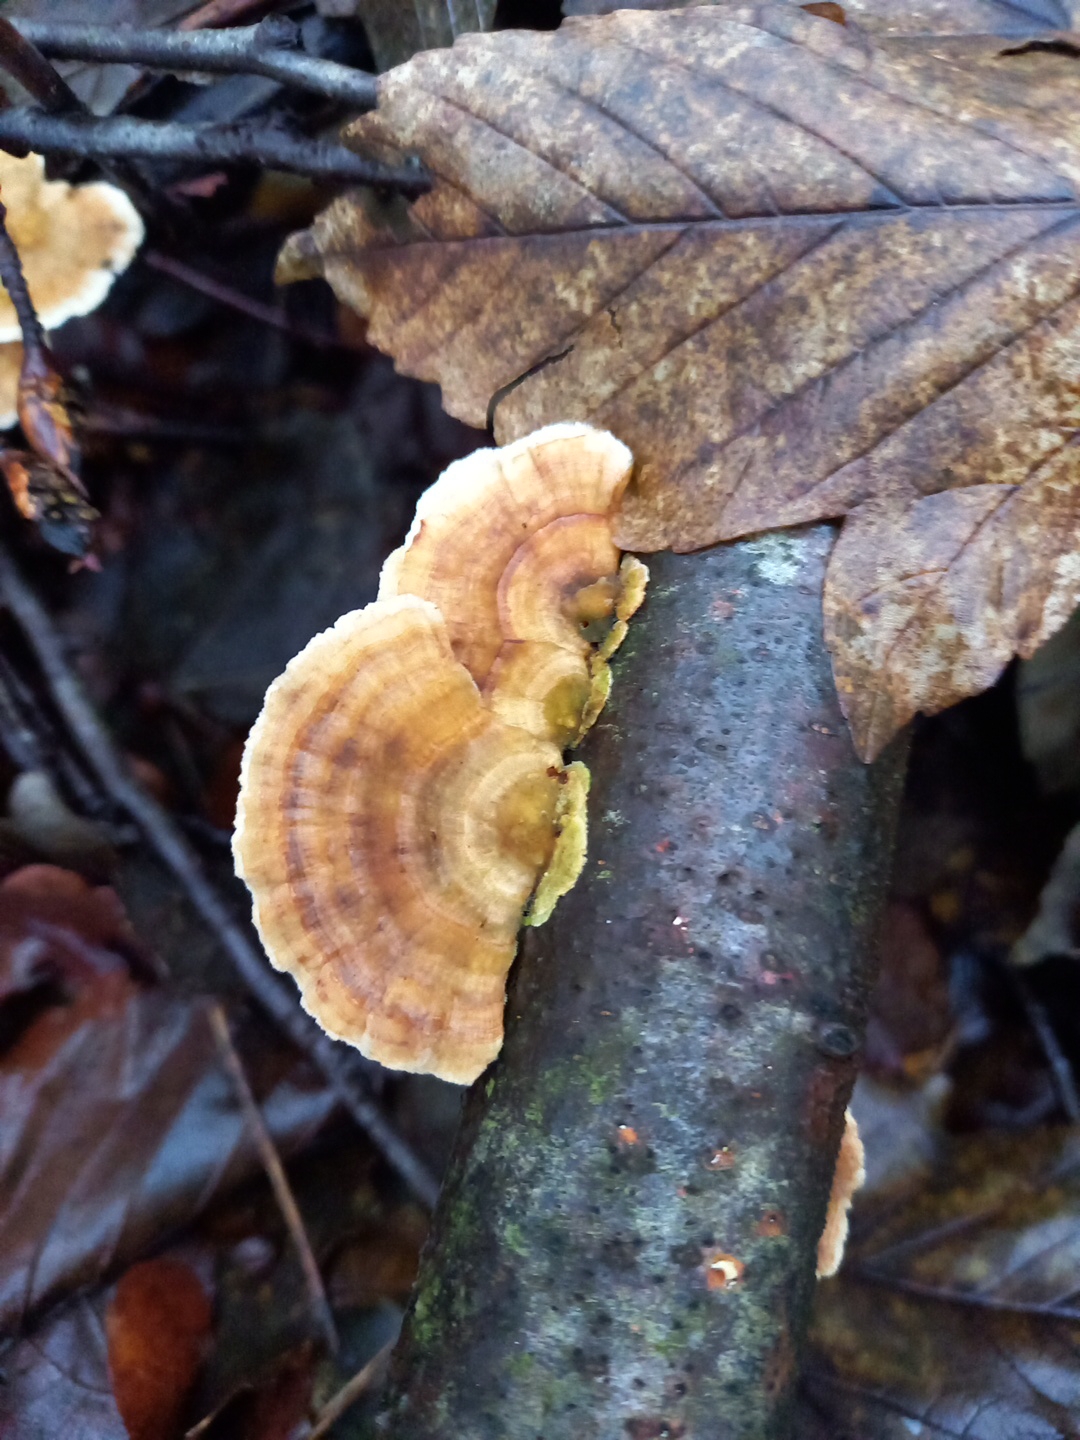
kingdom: Fungi
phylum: Basidiomycota
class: Agaricomycetes
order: Polyporales
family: Polyporaceae
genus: Trametes
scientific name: Trametes versicolor
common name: broget læderporesvamp
